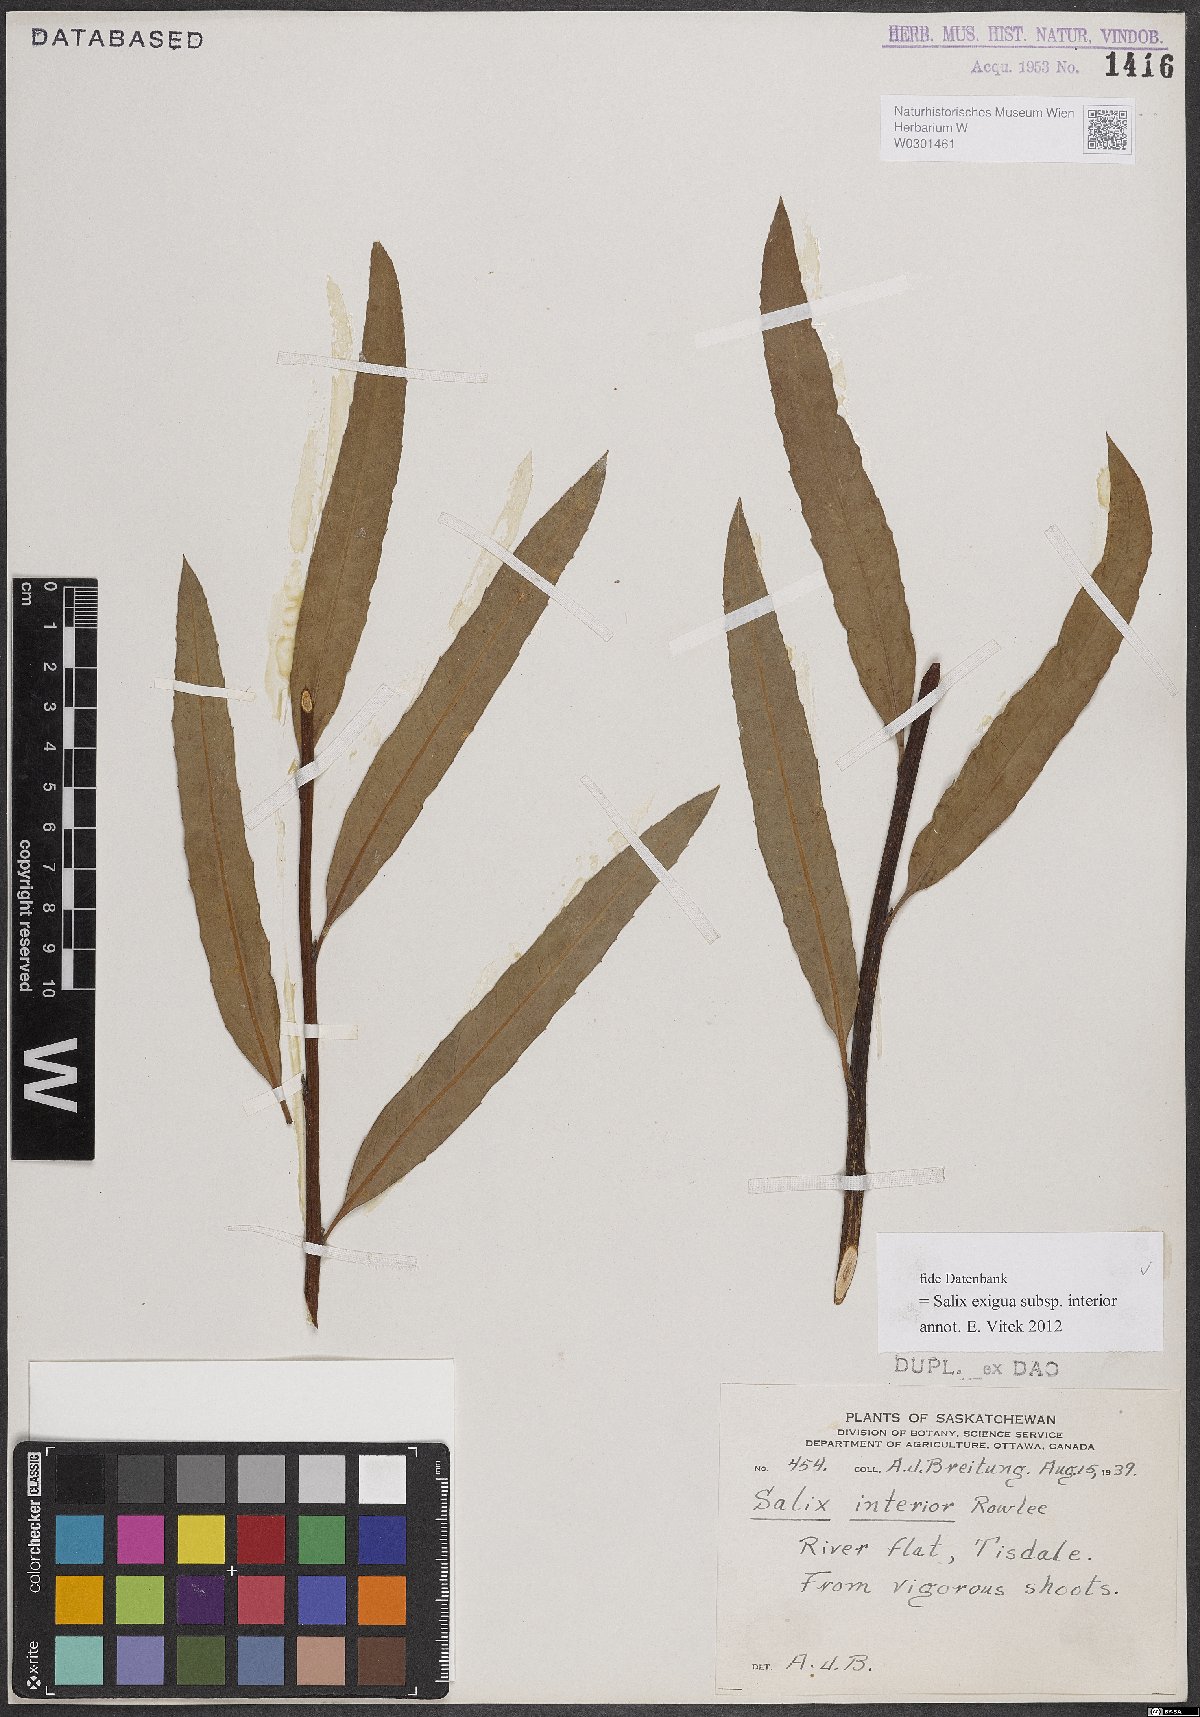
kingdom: Plantae
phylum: Tracheophyta
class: Magnoliopsida
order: Malpighiales
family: Salicaceae
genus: Salix
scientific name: Salix interior
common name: Sandbar willow
